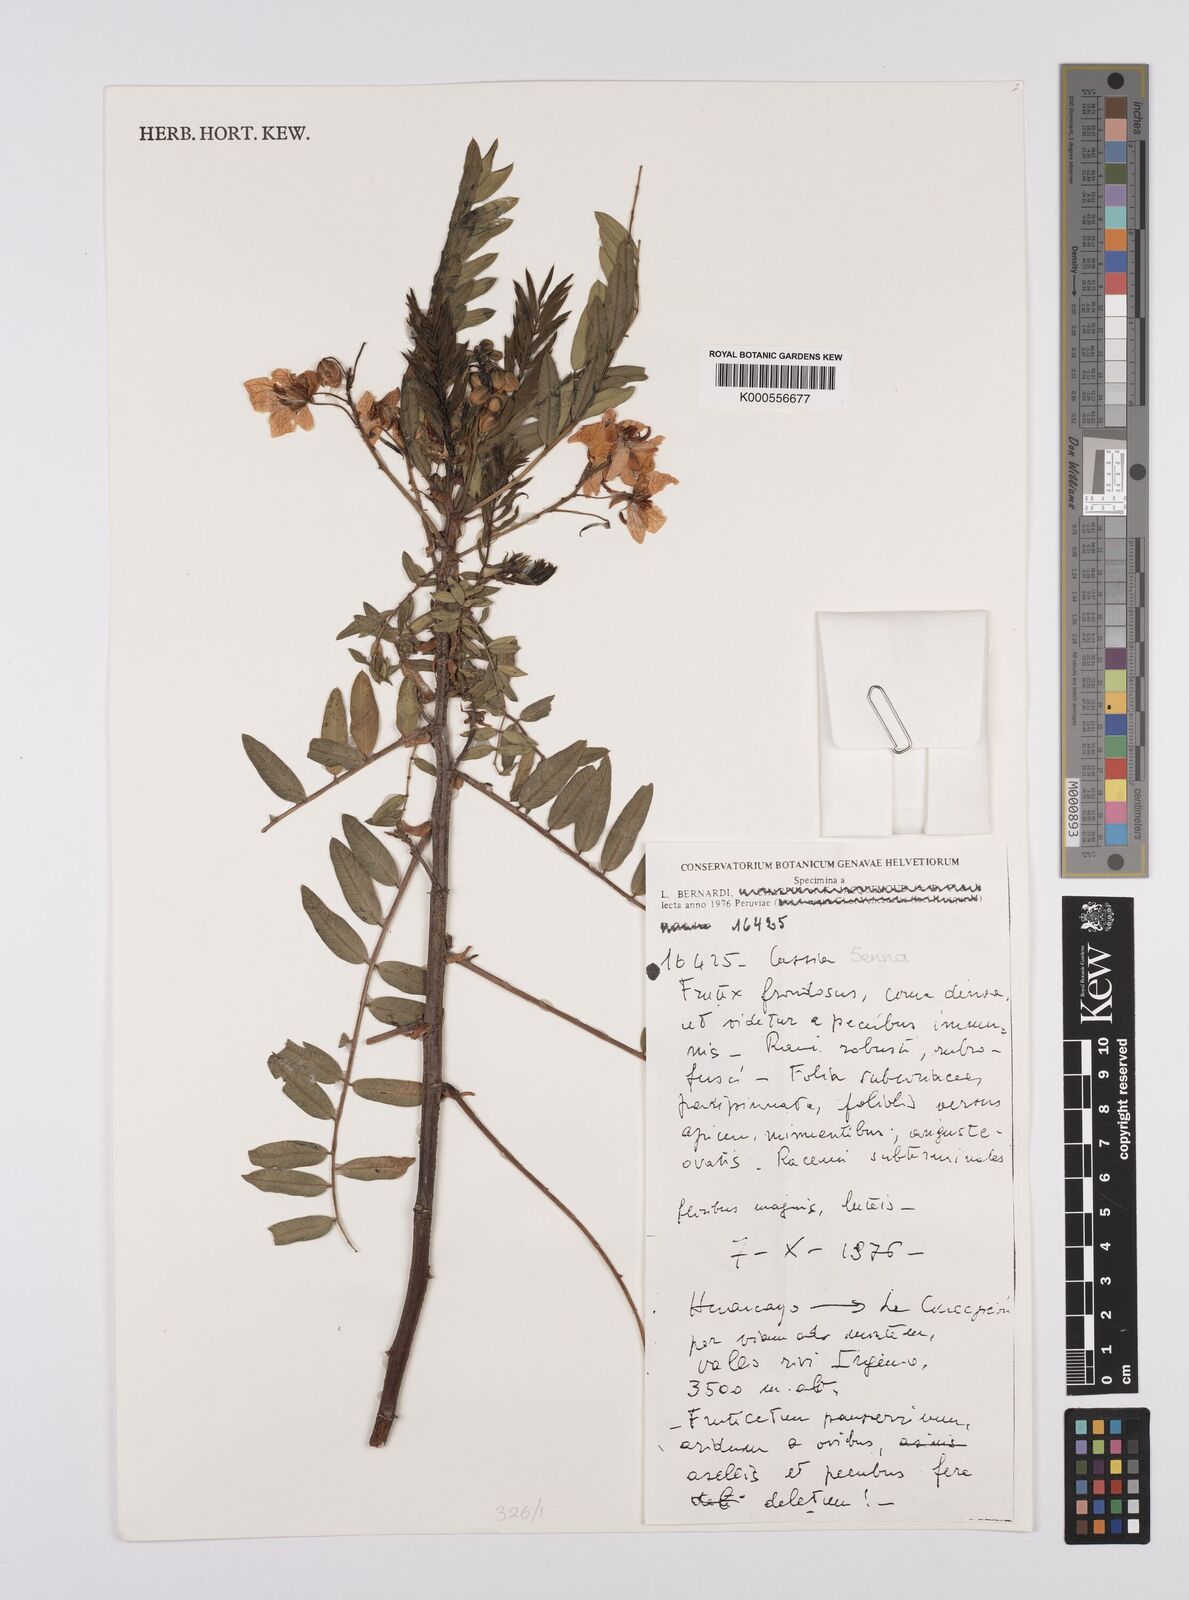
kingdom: Plantae
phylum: Tracheophyta
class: Magnoliopsida
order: Fabales
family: Fabaceae
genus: Senna
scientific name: Senna
